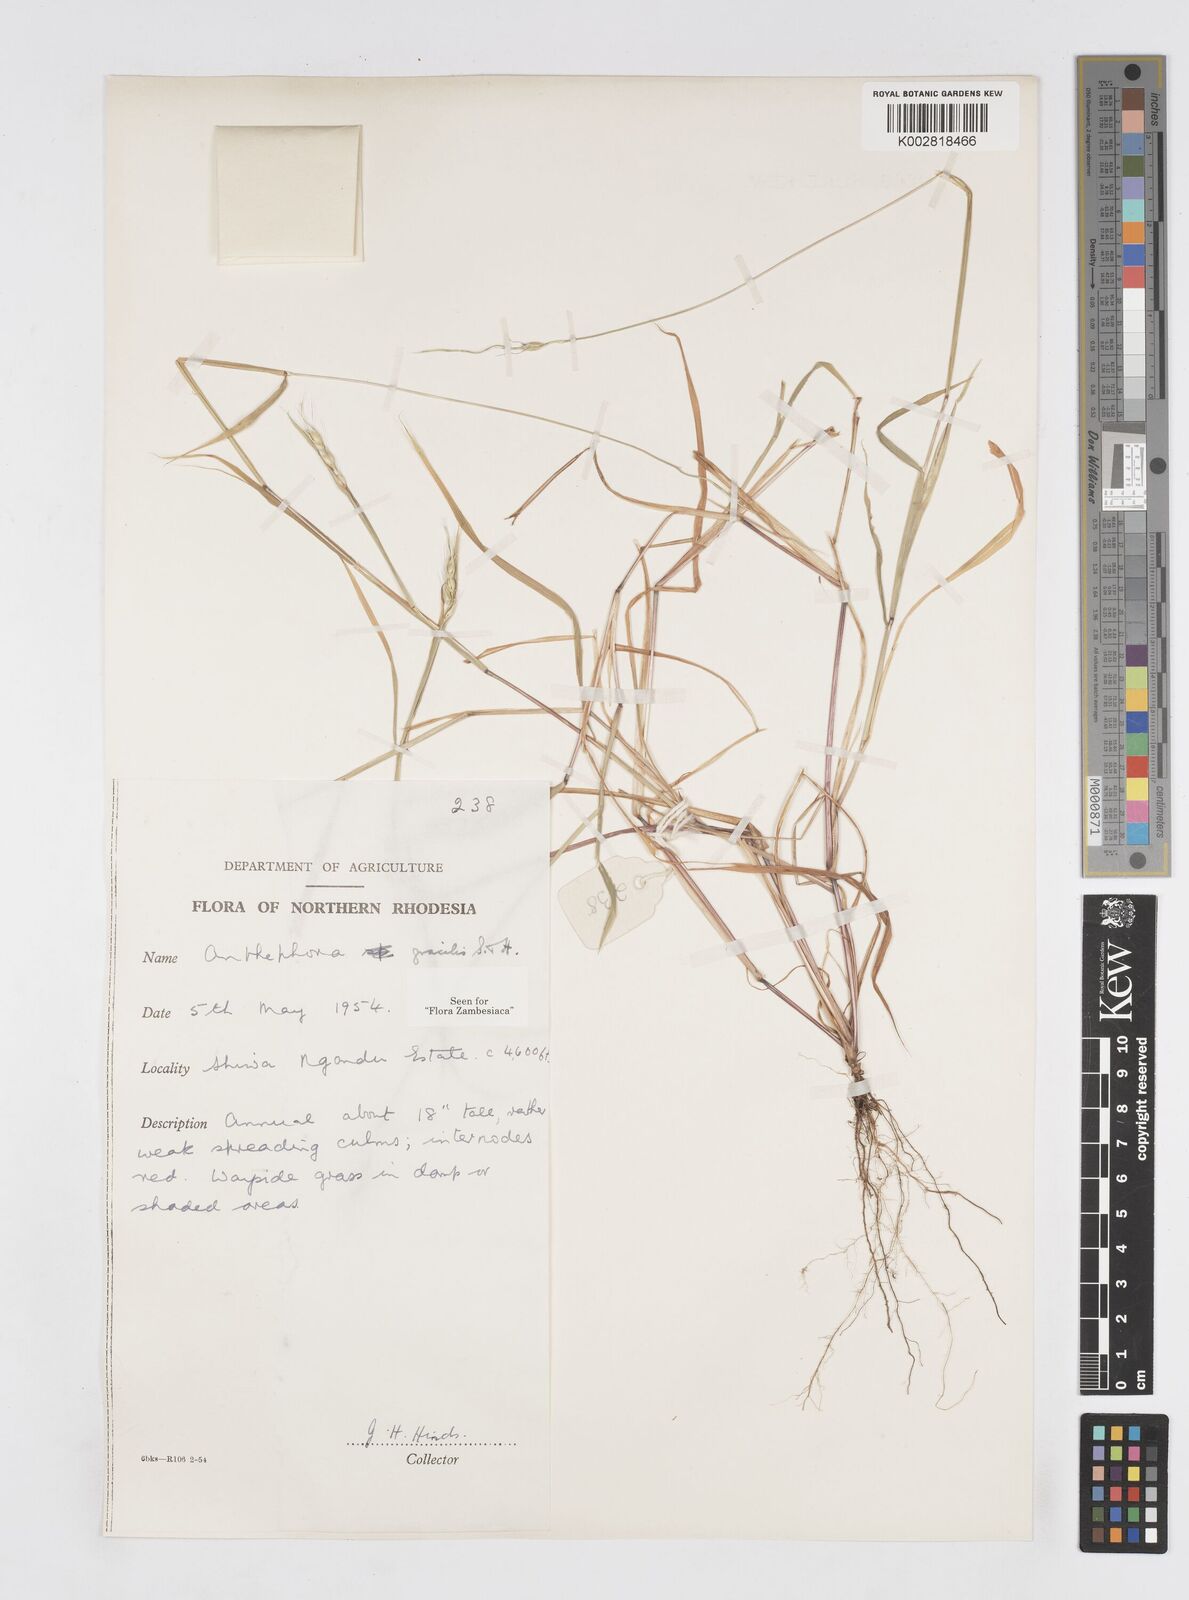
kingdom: Plantae
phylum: Tracheophyta
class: Liliopsida
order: Poales
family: Poaceae
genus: Anthephora
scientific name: Anthephora truncata
